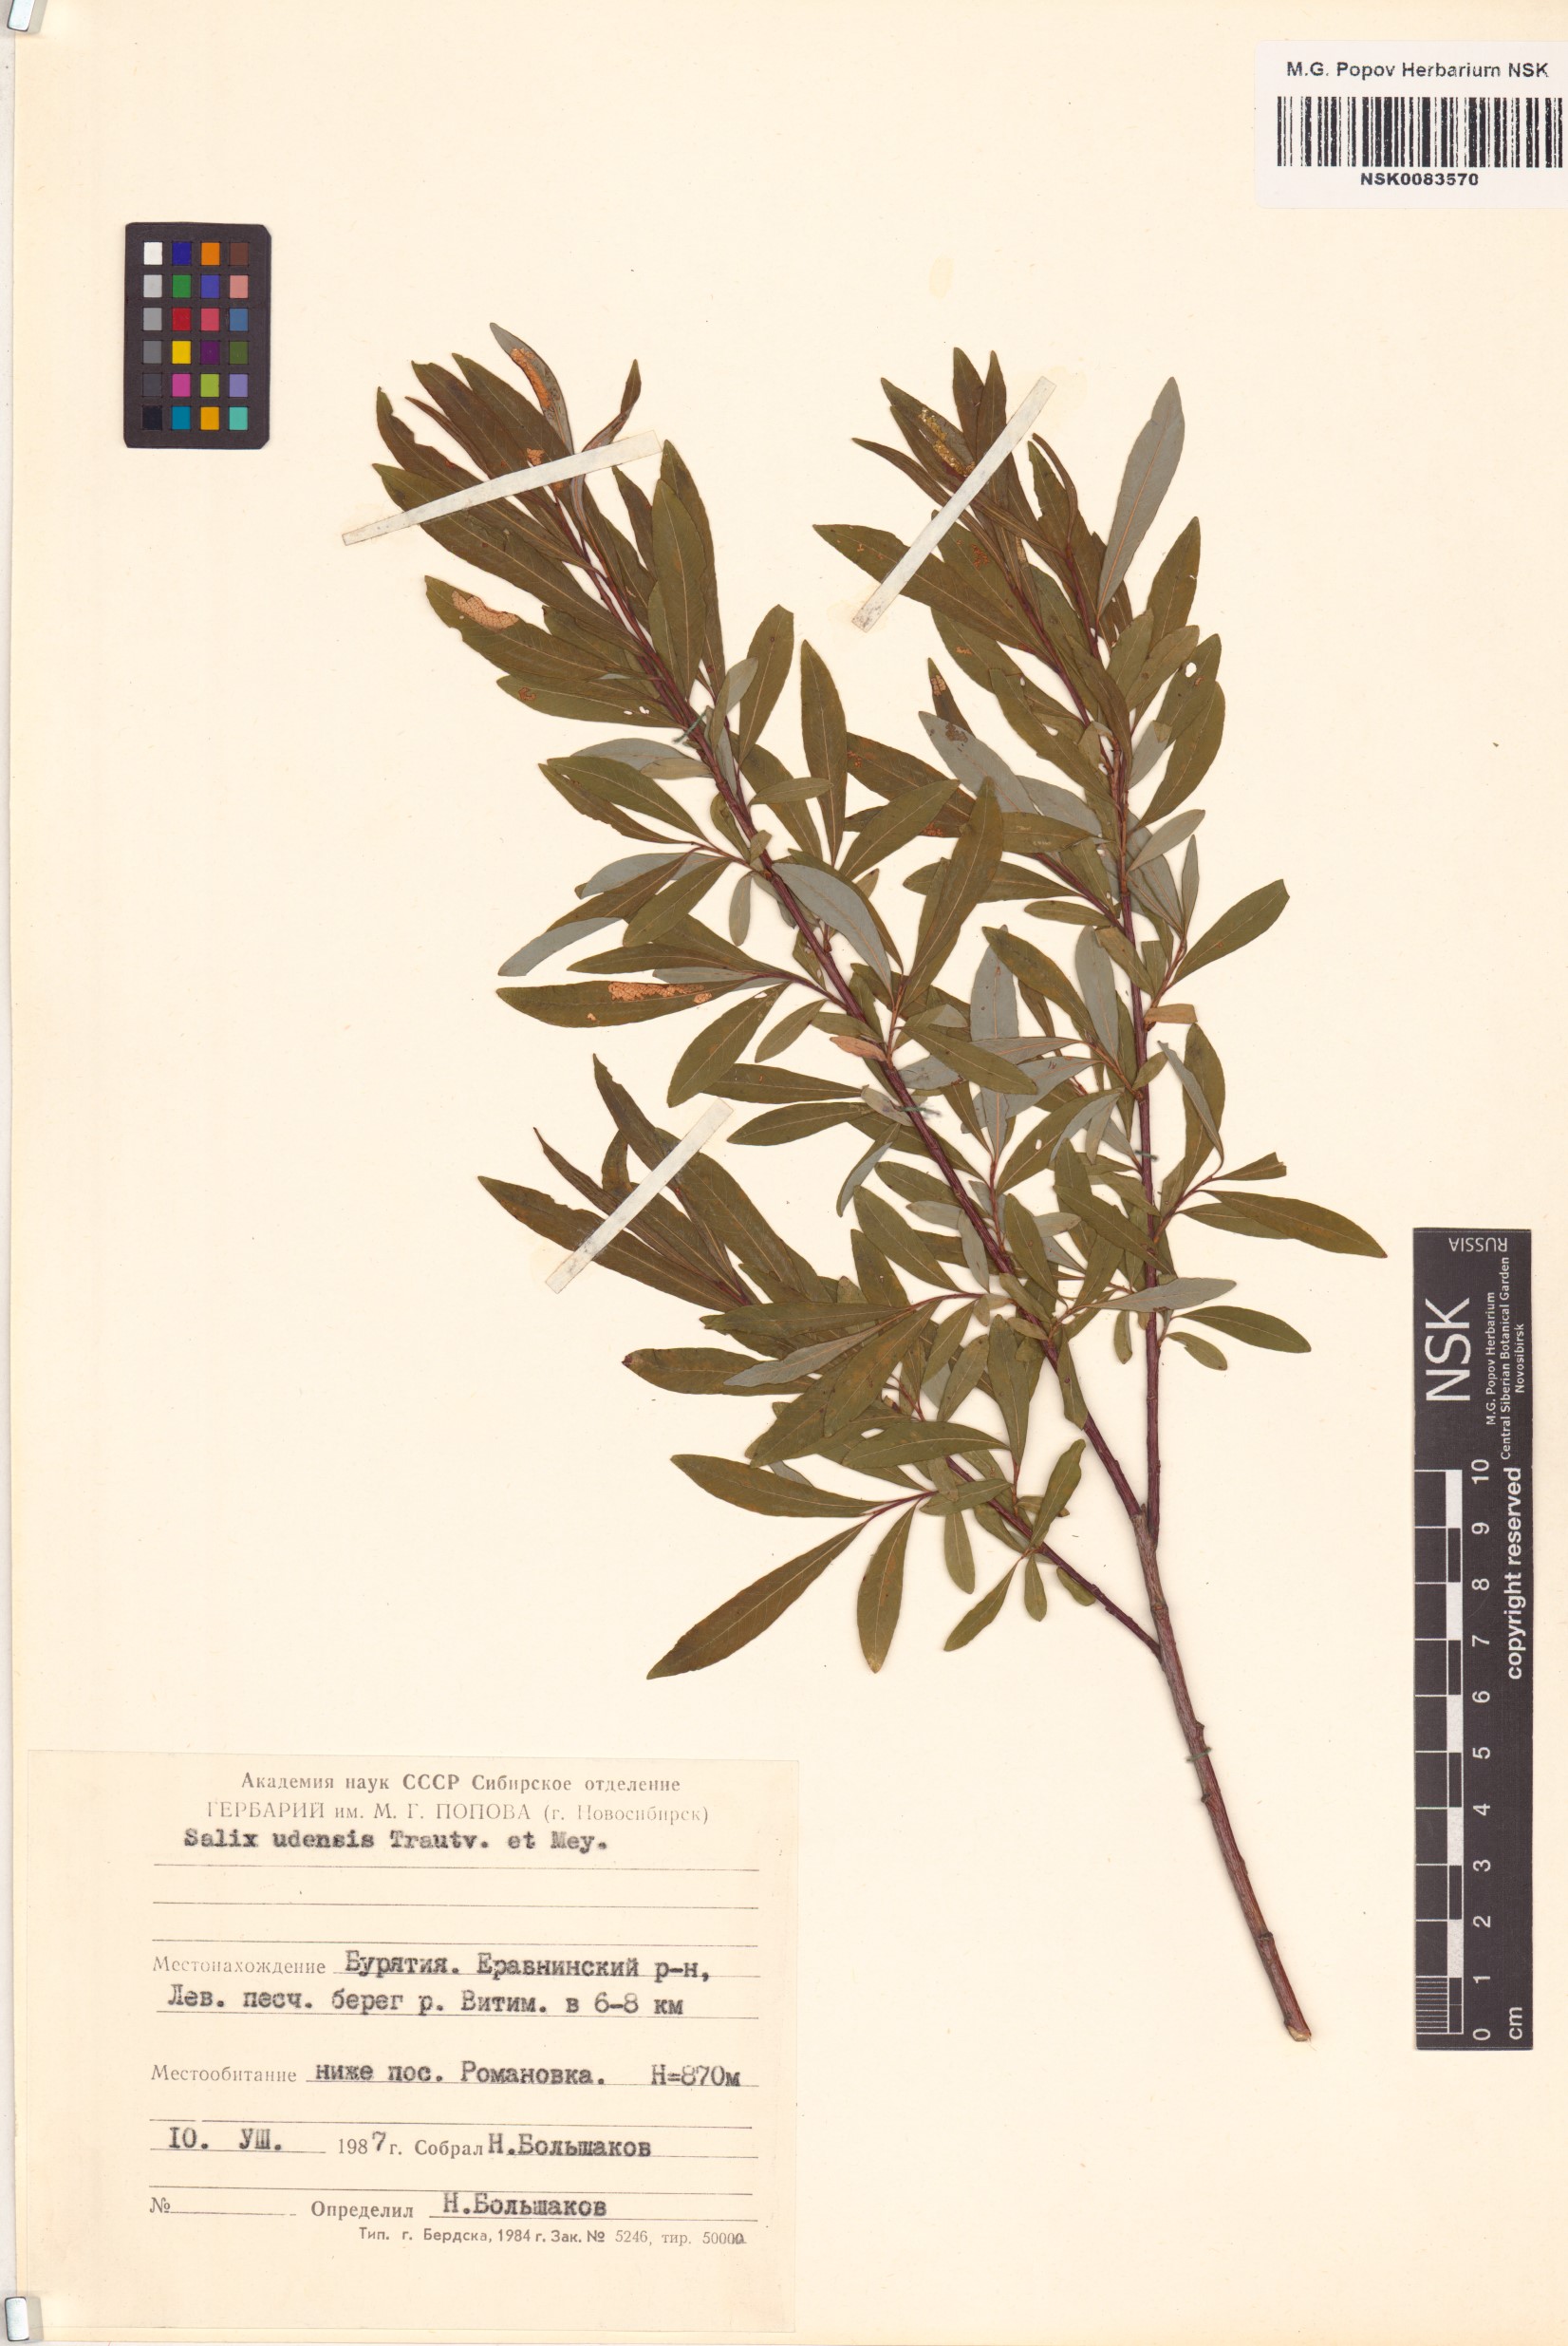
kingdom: Plantae
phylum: Tracheophyta
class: Magnoliopsida
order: Malpighiales
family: Salicaceae
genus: Salix
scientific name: Salix udensis
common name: Sachalin willow
